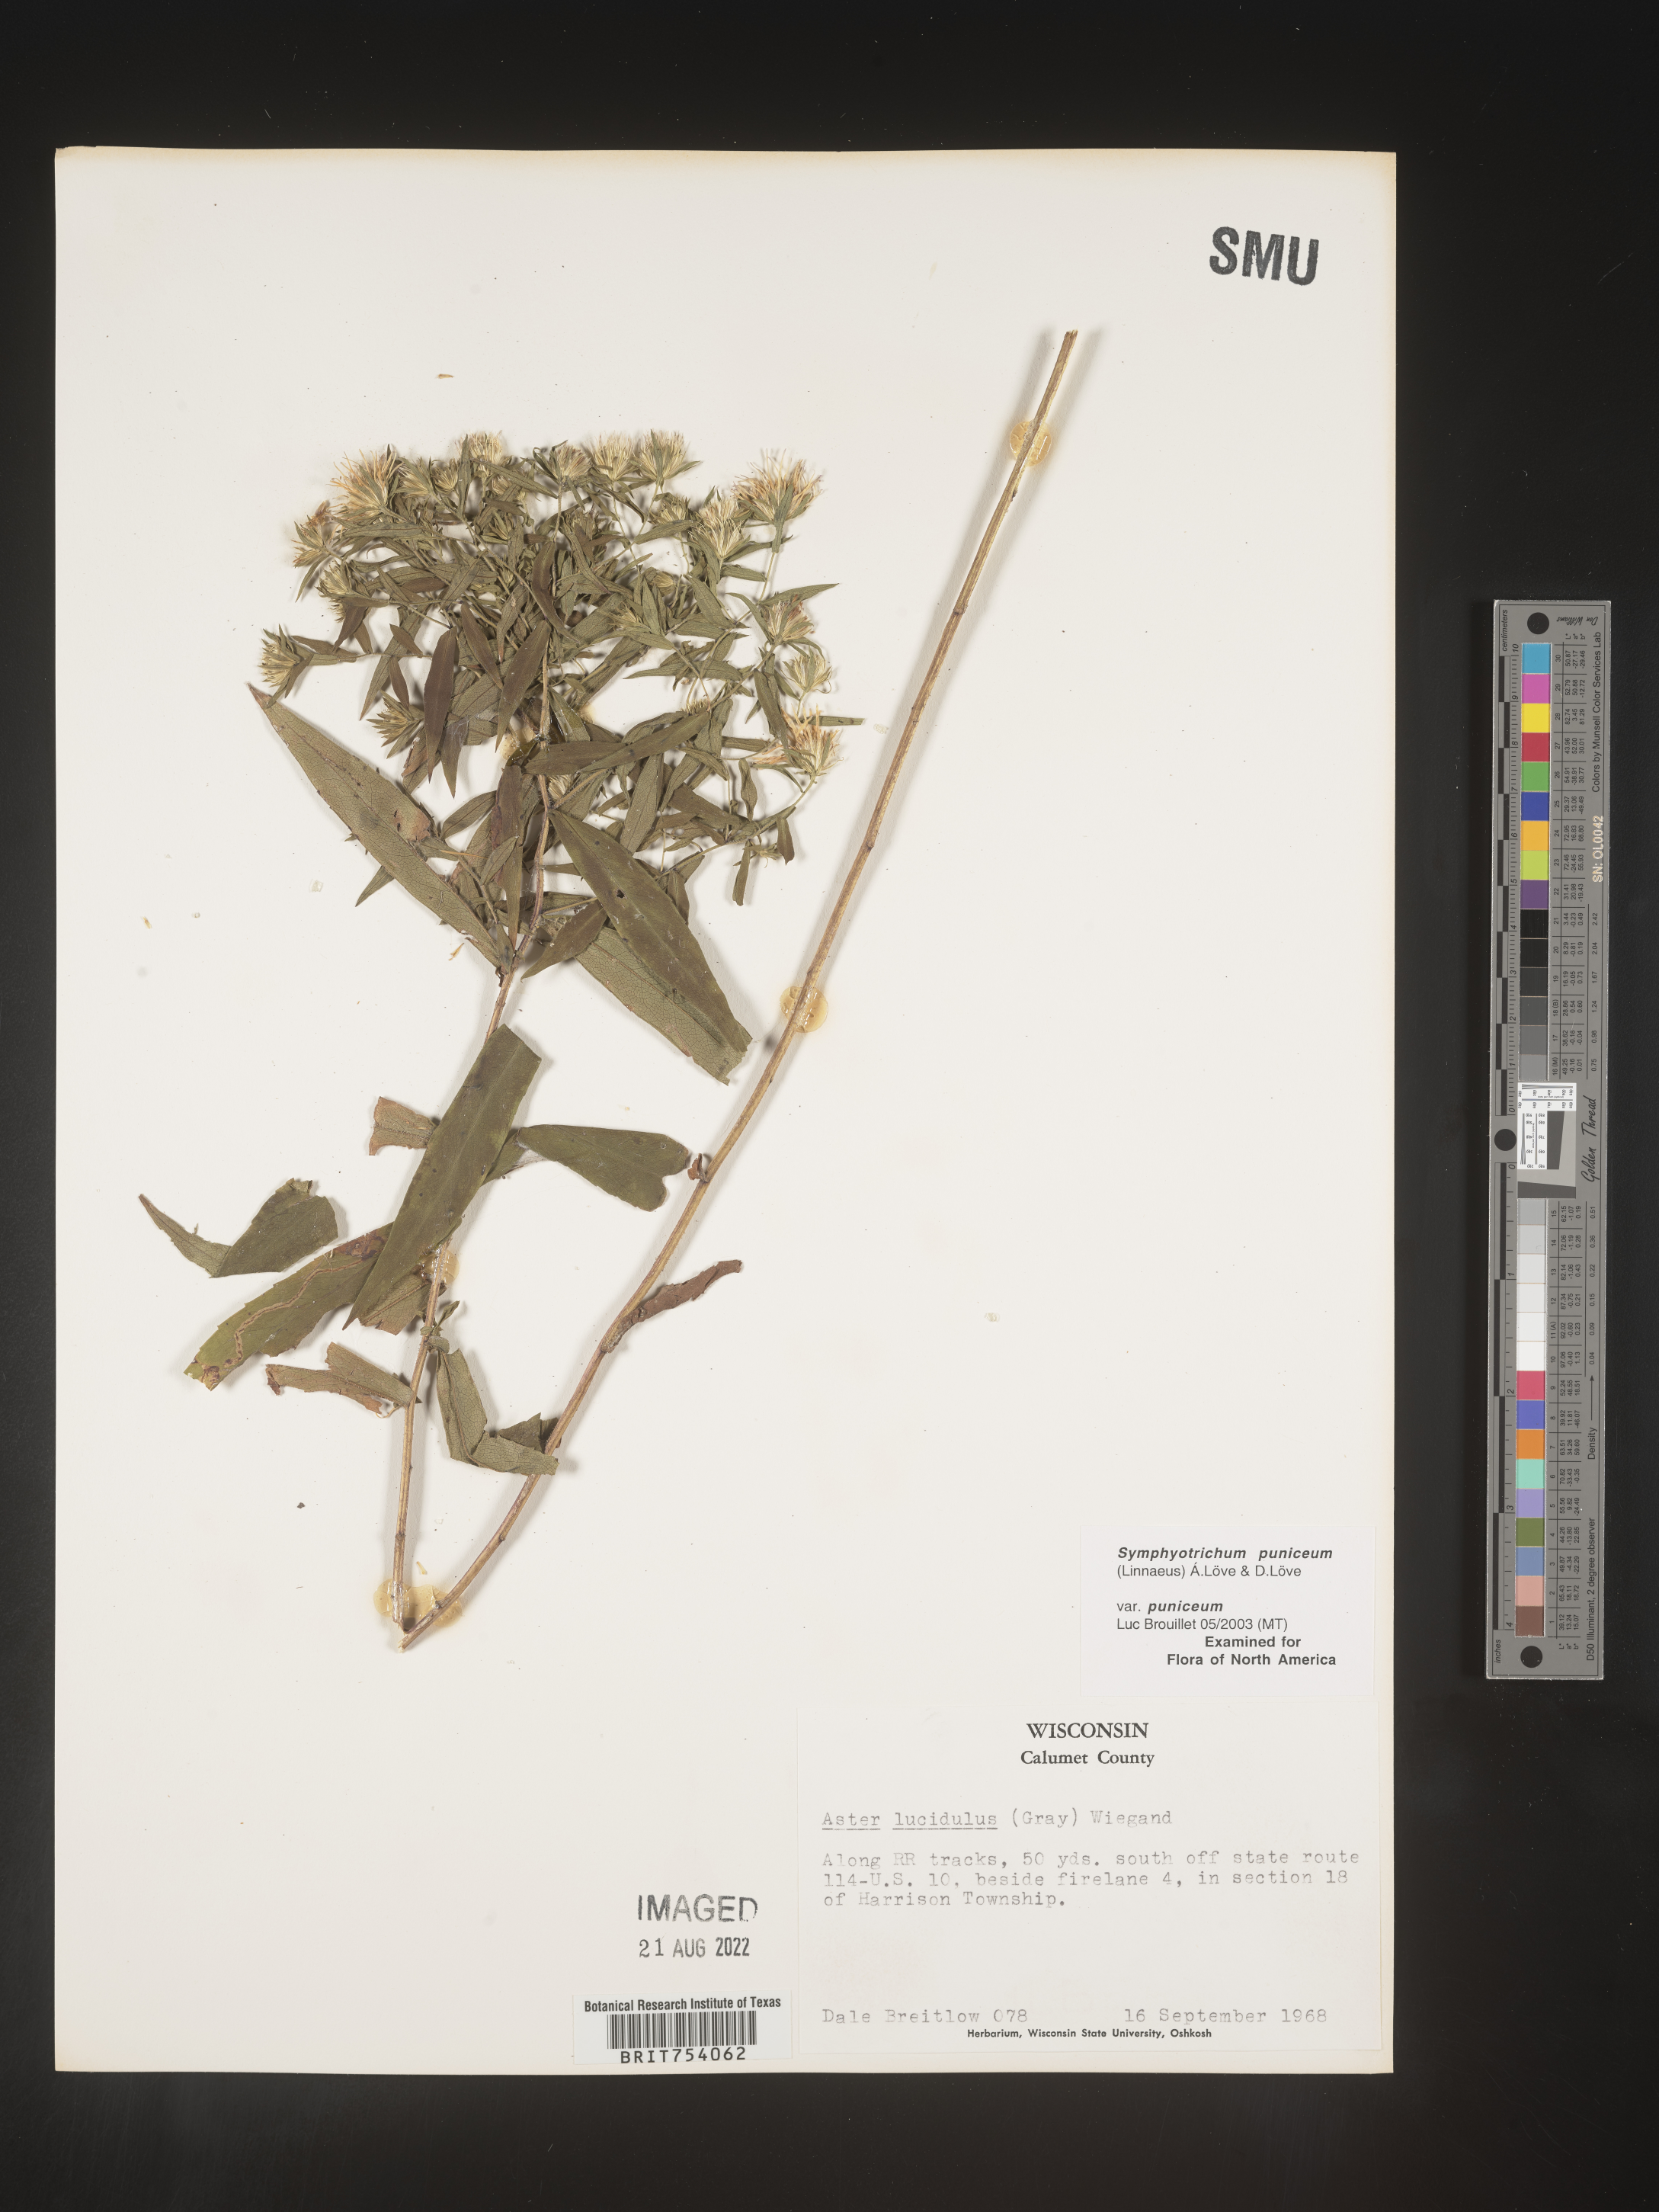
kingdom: Plantae
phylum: Tracheophyta
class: Magnoliopsida
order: Asterales
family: Asteraceae
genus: Symphyotrichum
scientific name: Symphyotrichum puniceum
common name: Bog aster
